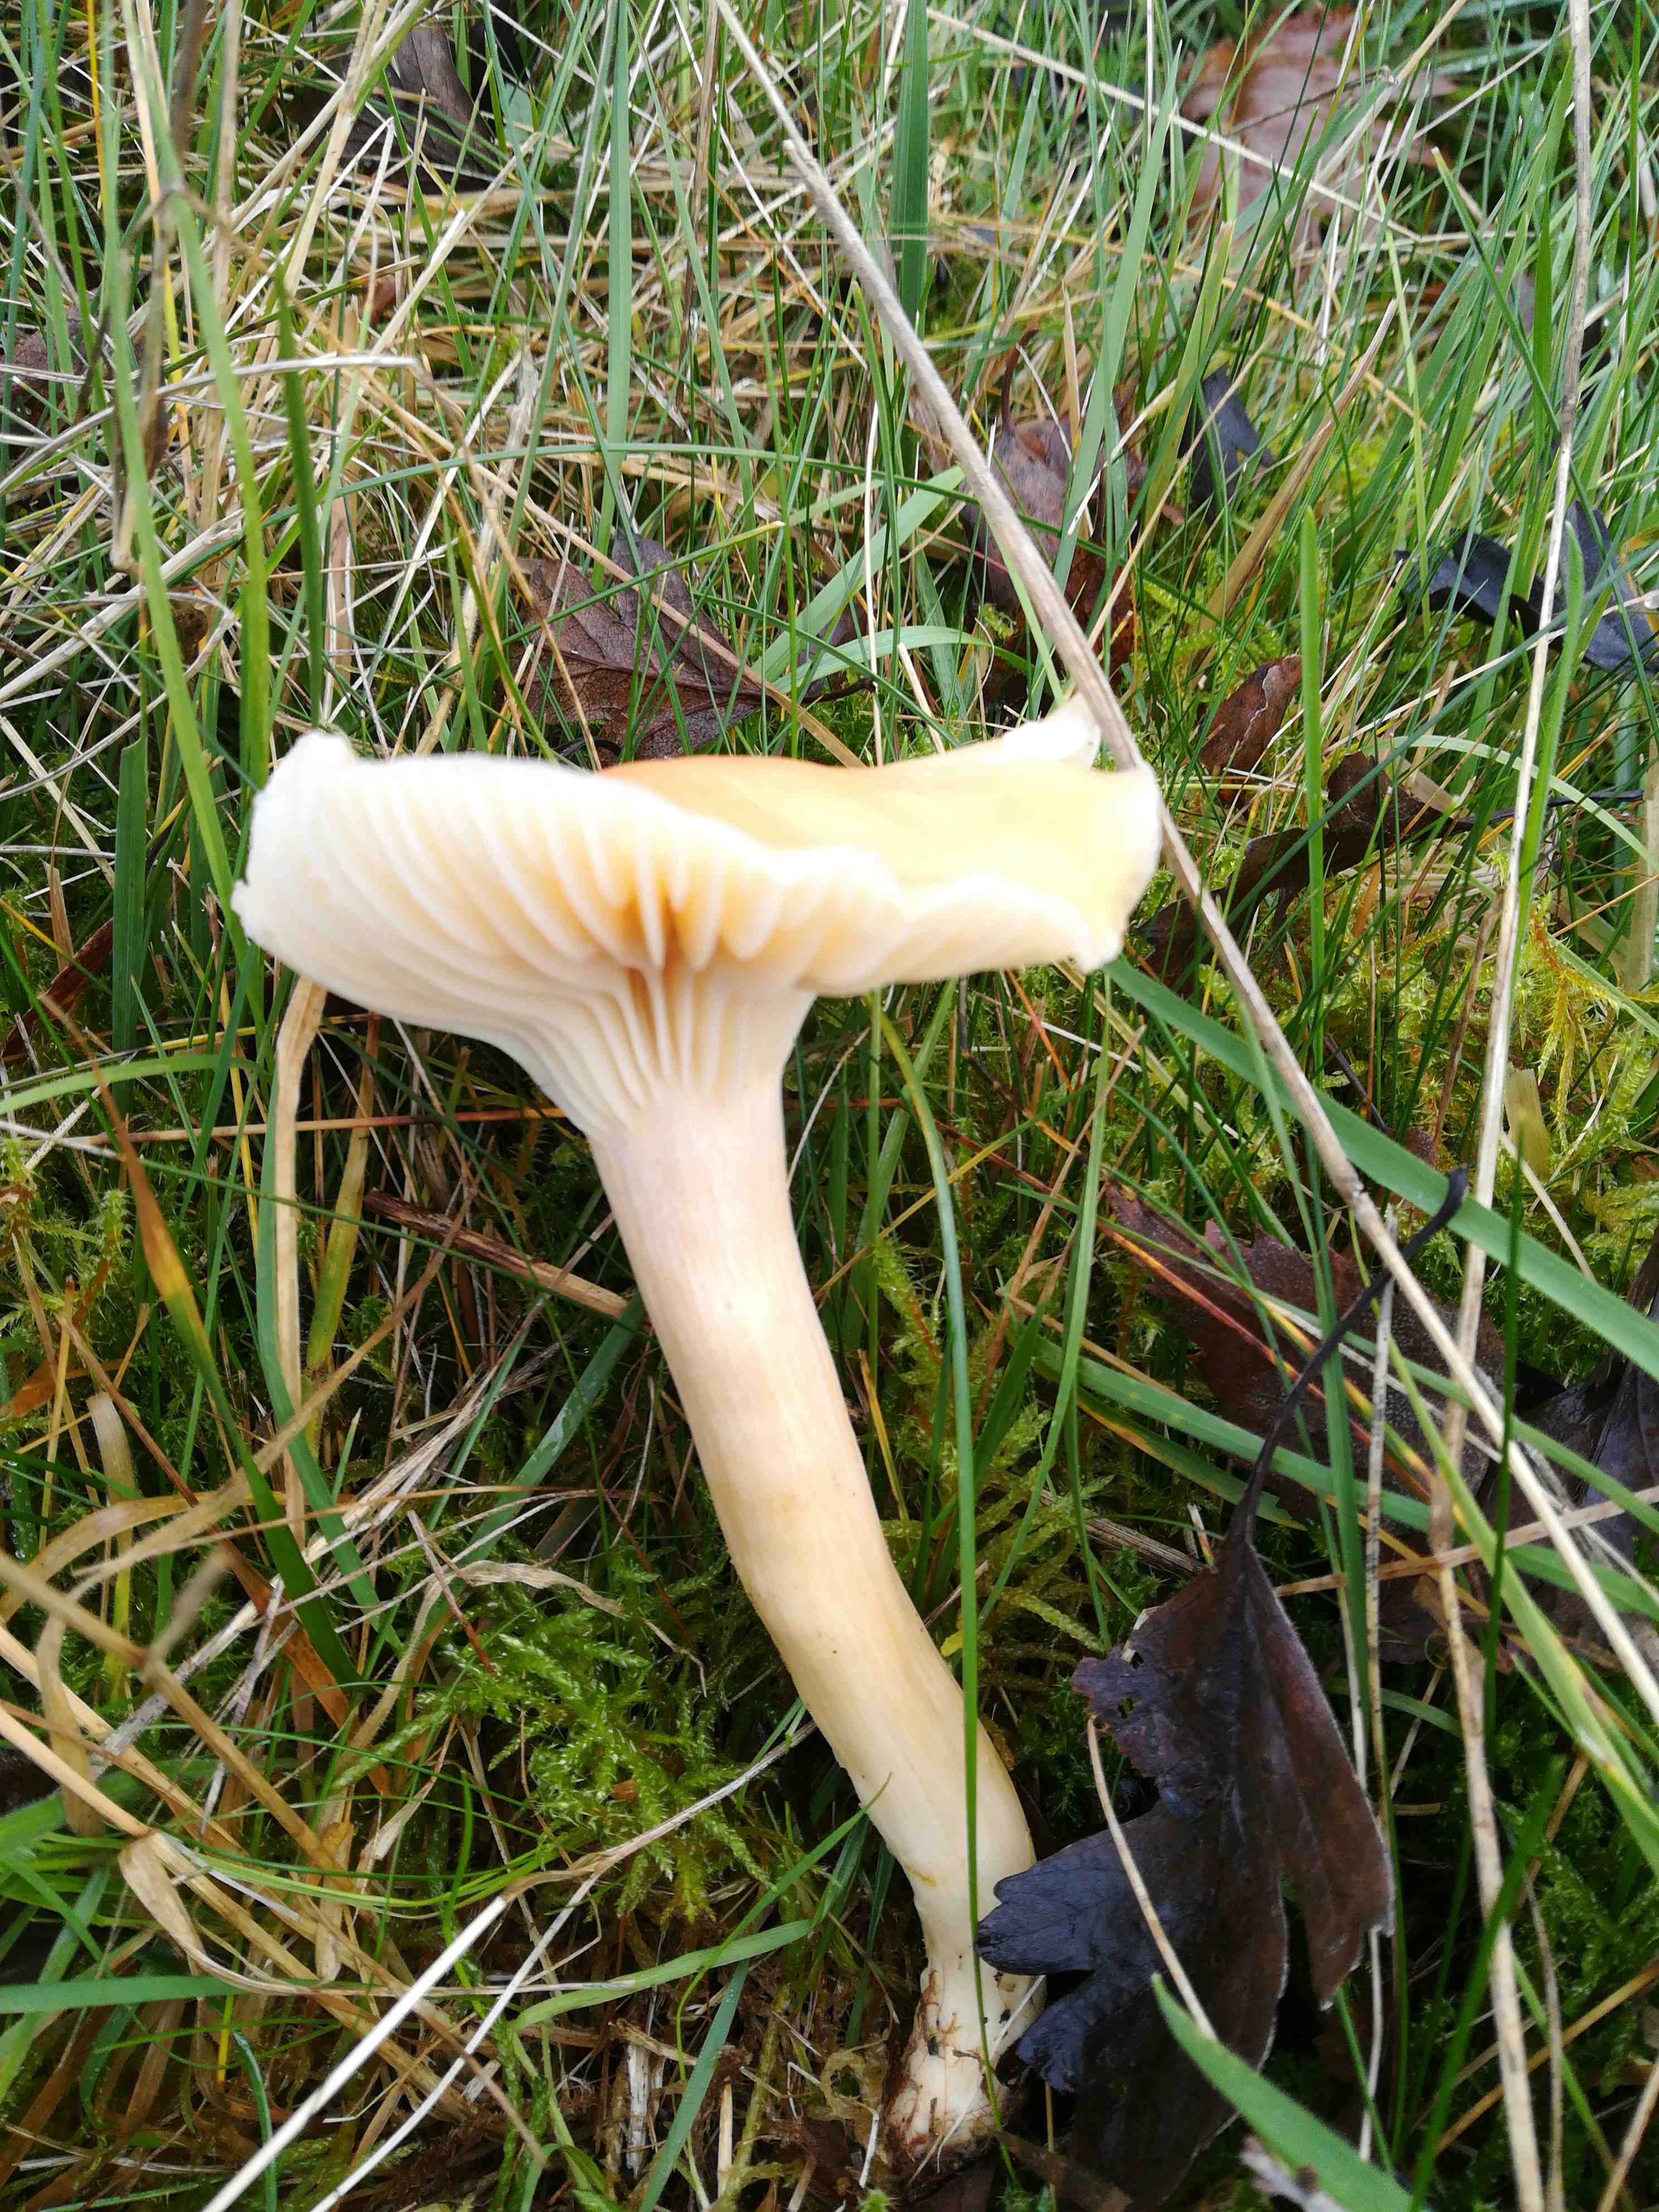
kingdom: Fungi
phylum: Basidiomycota
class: Agaricomycetes
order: Agaricales
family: Hygrophoraceae
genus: Cuphophyllus
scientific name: Cuphophyllus pratensis
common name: eng-vokshat
